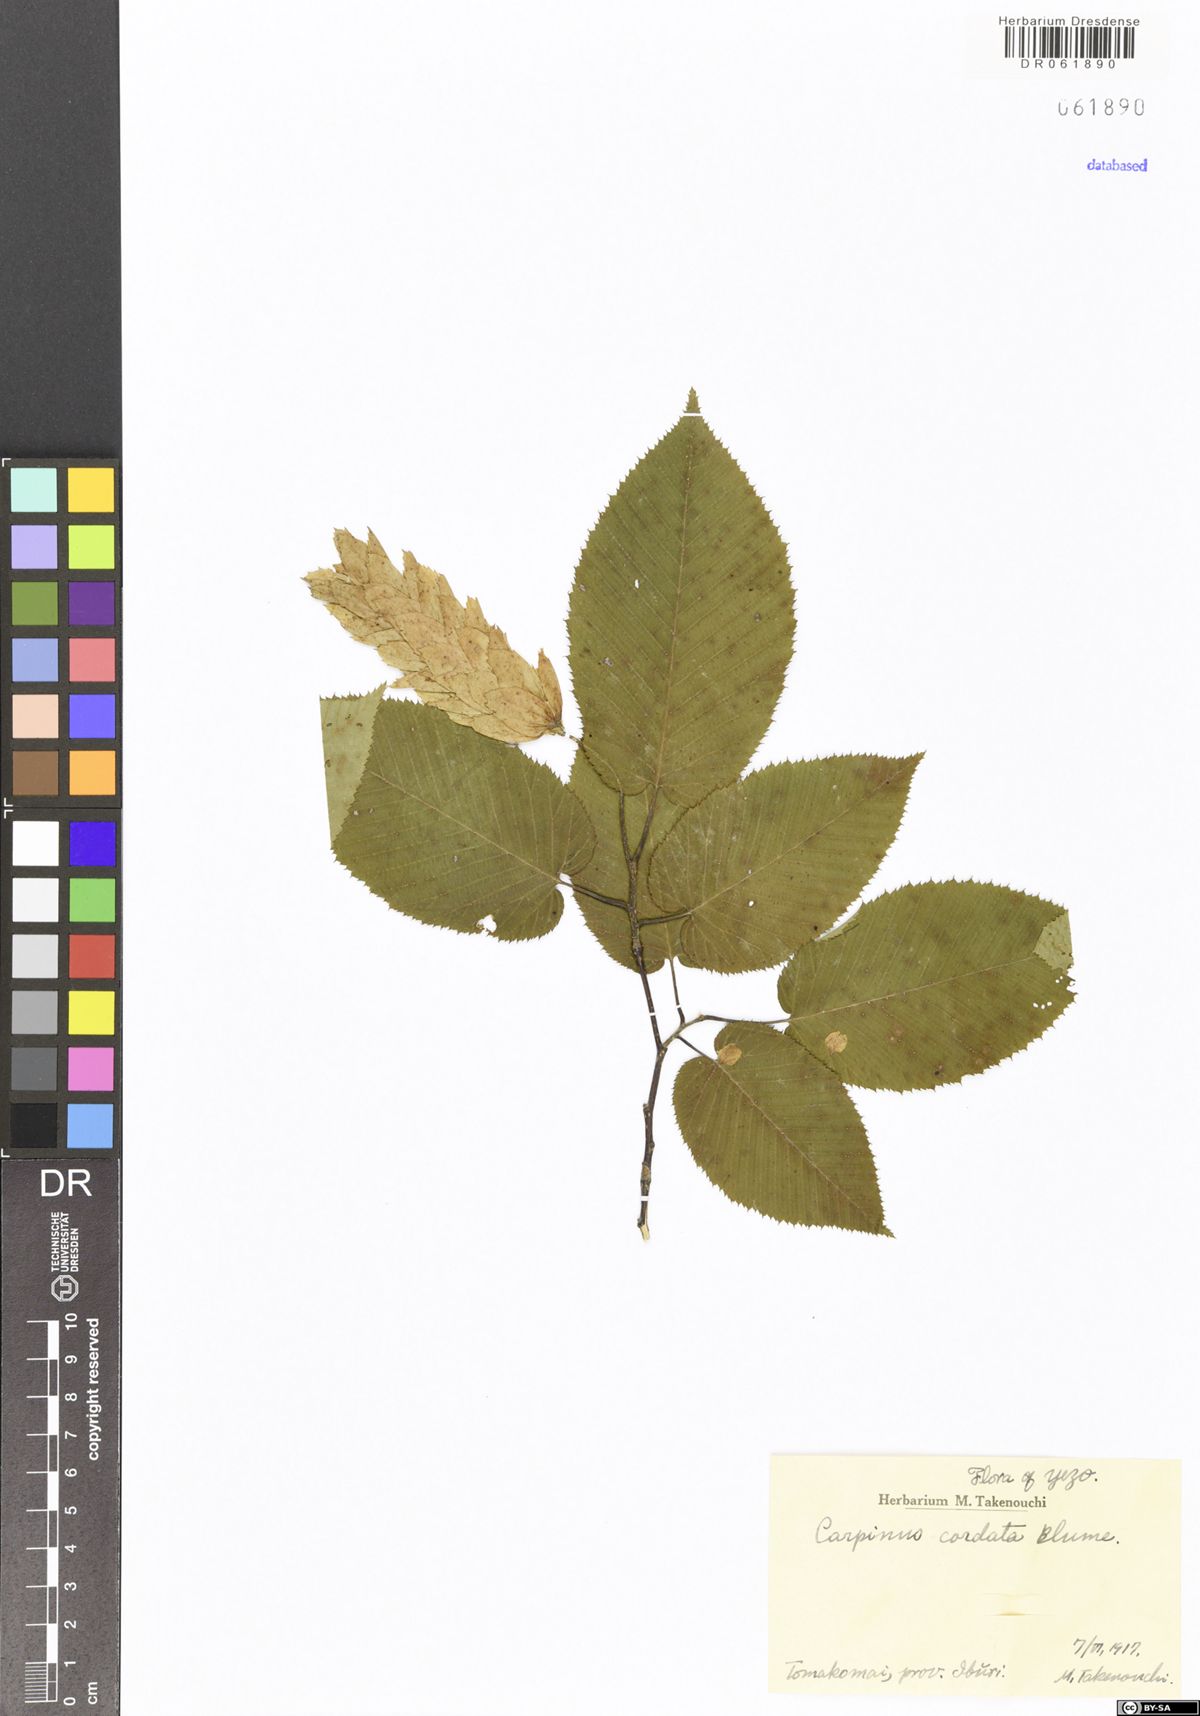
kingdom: Plantae
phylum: Tracheophyta
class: Magnoliopsida
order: Fagales
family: Betulaceae
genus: Carpinus
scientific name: Carpinus cordata
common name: Sawa hornbeam
